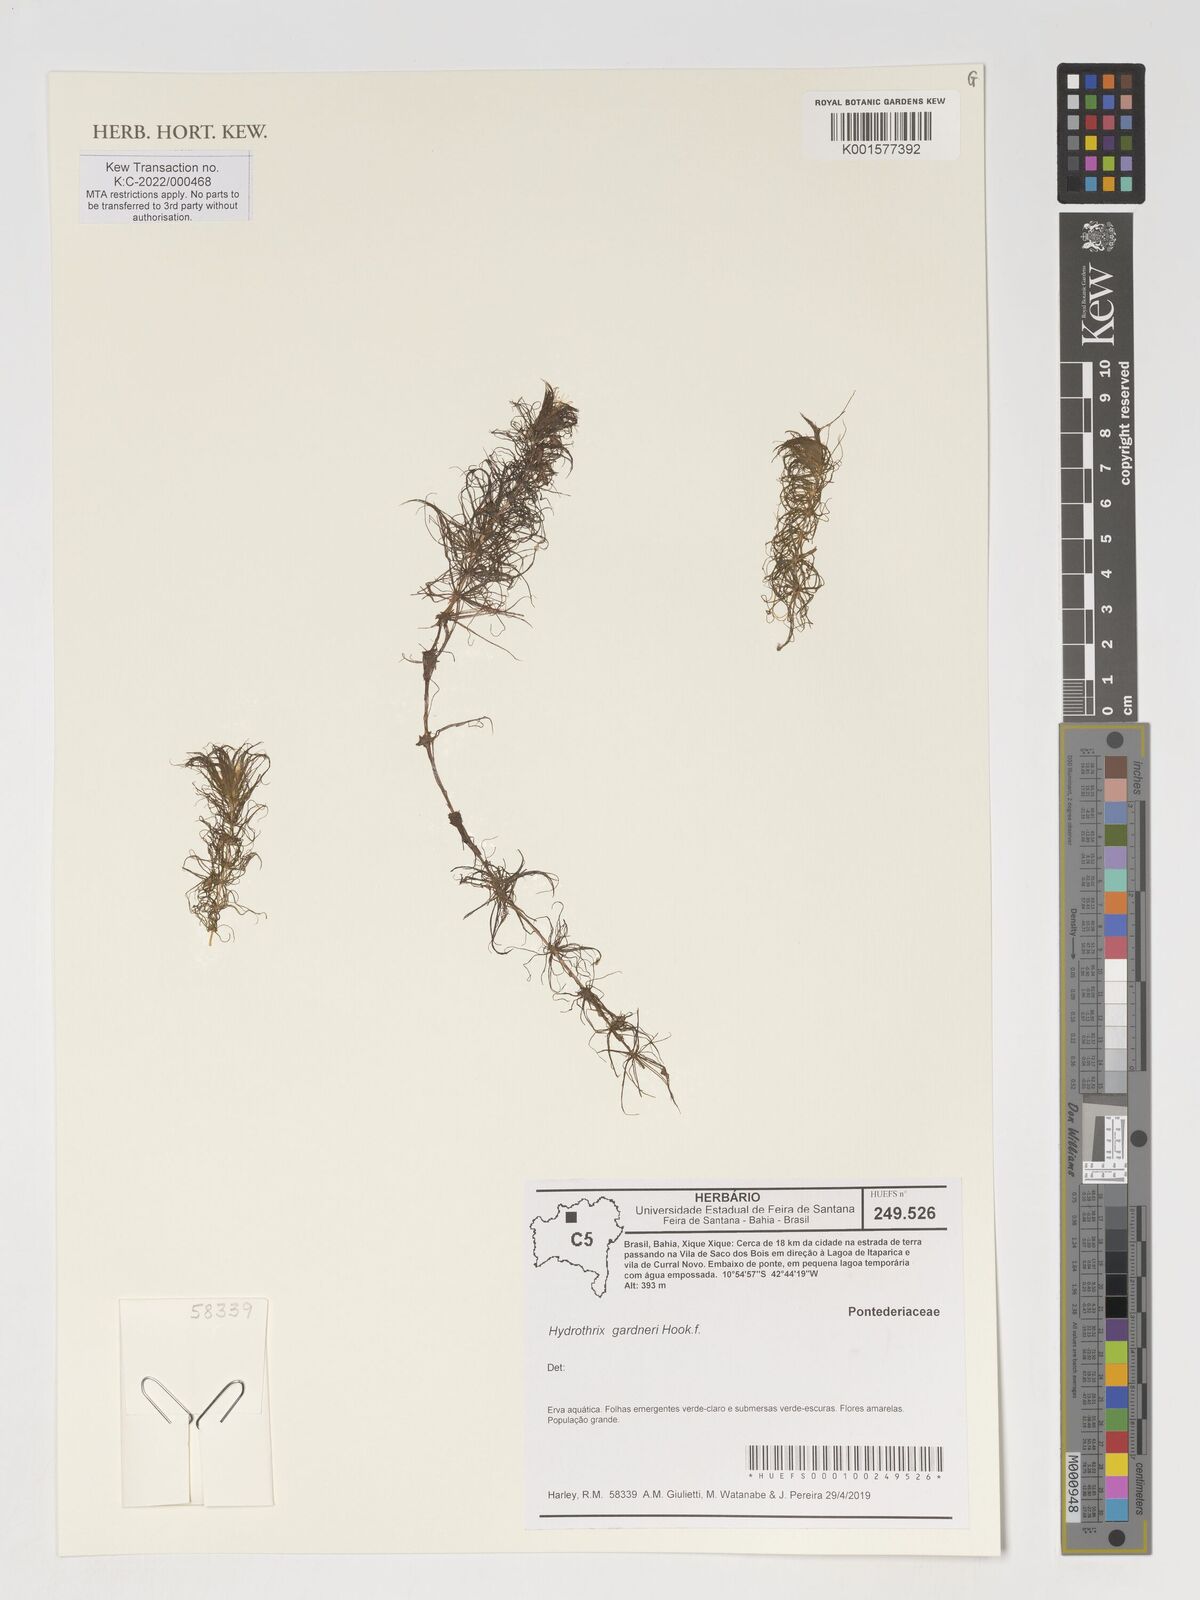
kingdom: Plantae
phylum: Tracheophyta
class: Liliopsida
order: Commelinales
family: Pontederiaceae
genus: Heteranthera
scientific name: Heteranthera gardneri
